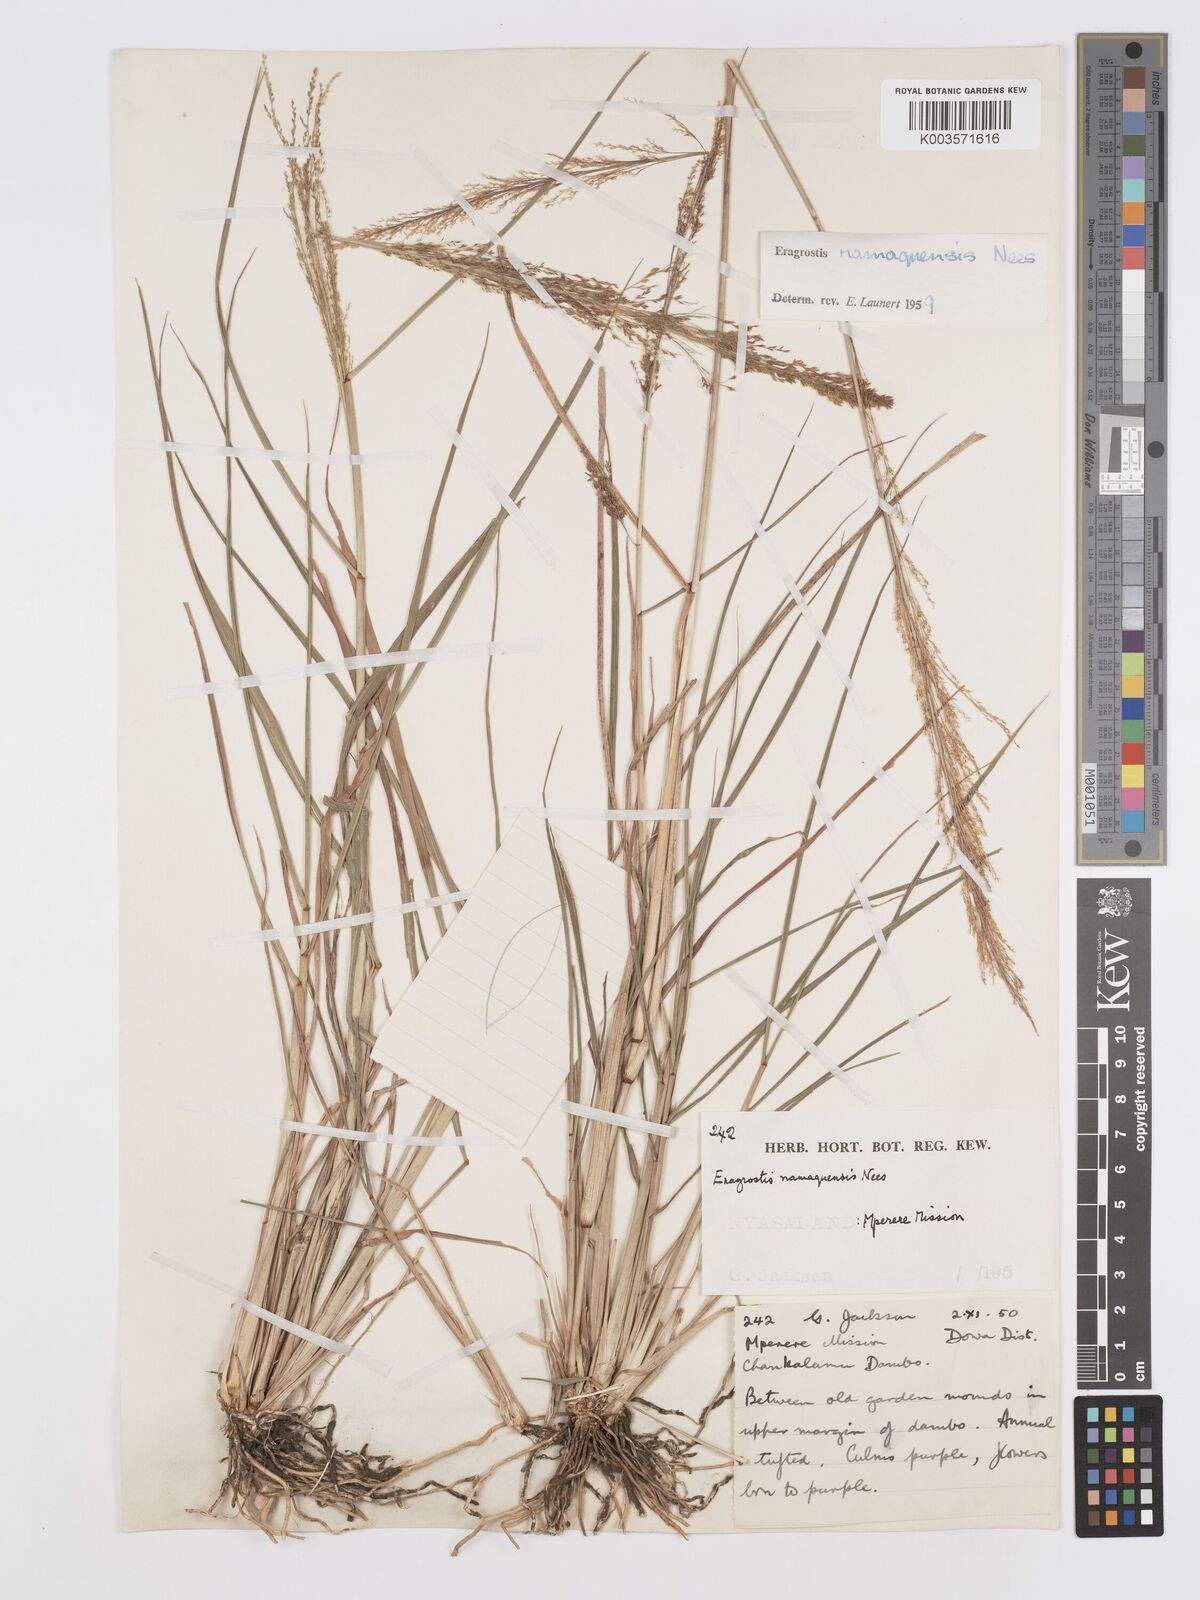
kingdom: Plantae
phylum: Tracheophyta
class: Liliopsida
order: Poales
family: Poaceae
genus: Eragrostis
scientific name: Eragrostis japonica
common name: Pond lovegrass
